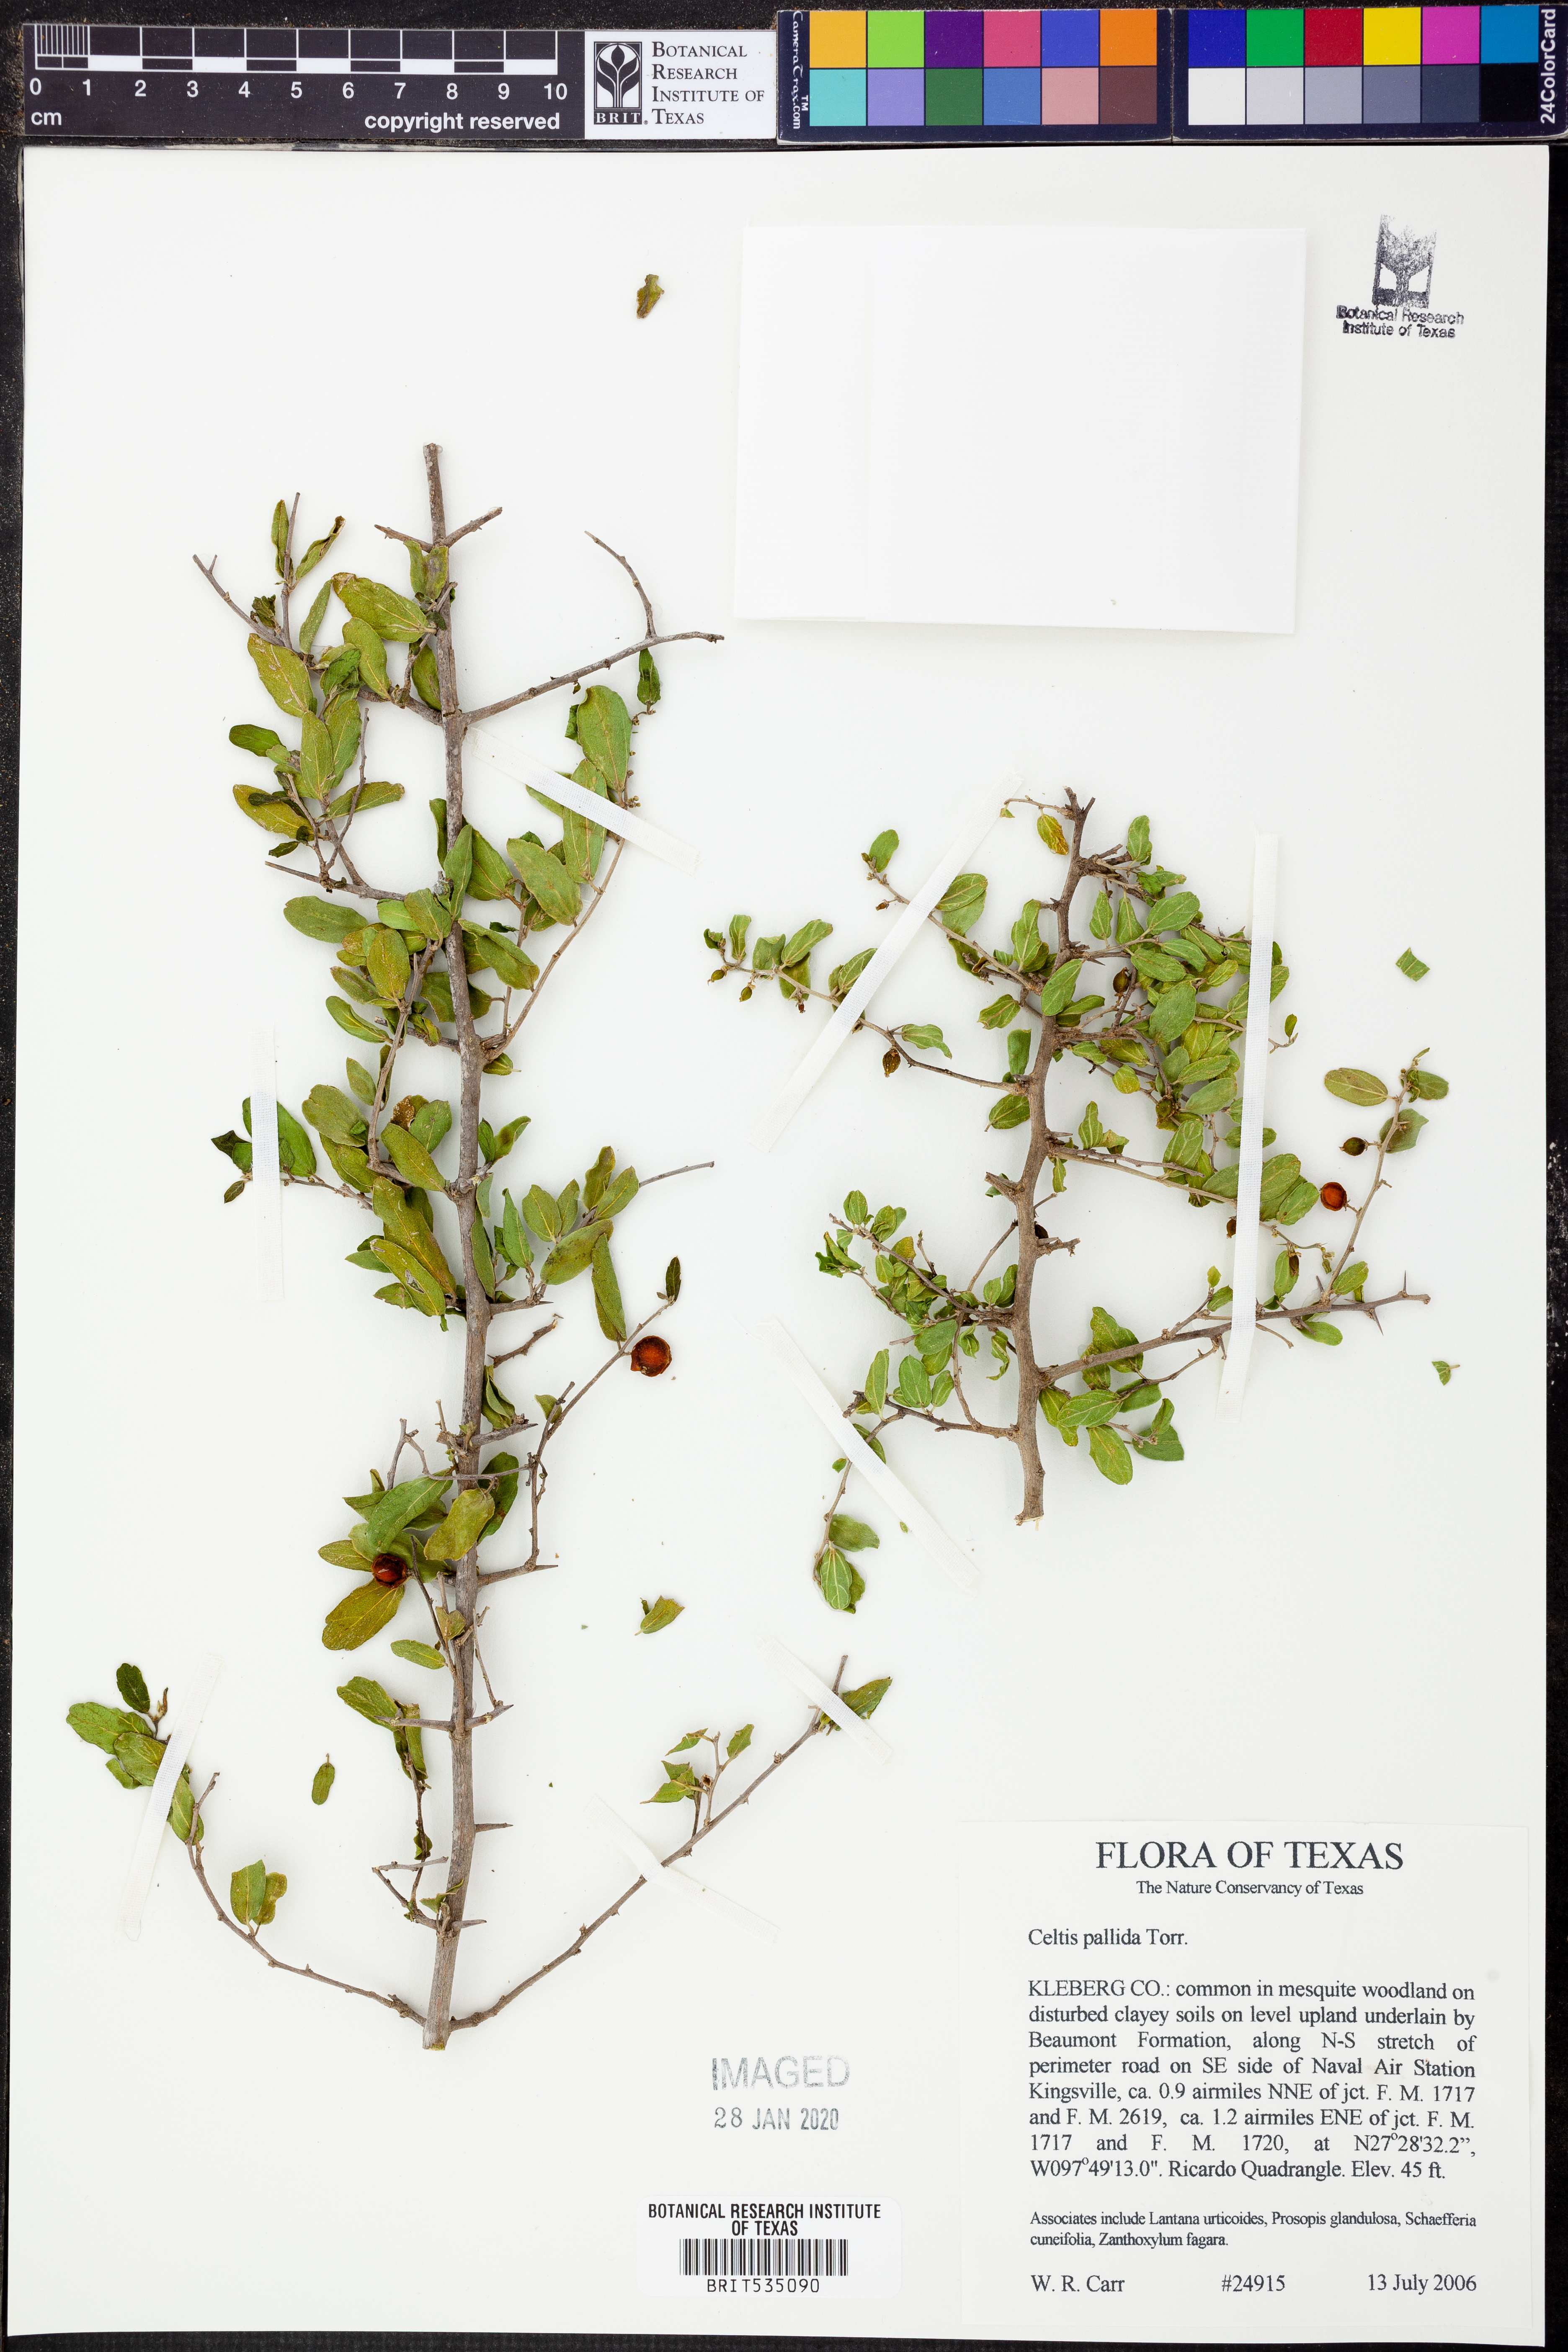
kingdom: Plantae
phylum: Tracheophyta
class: Magnoliopsida
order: Rosales
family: Cannabaceae
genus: Celtis
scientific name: Celtis pallida
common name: Desert hackberry
